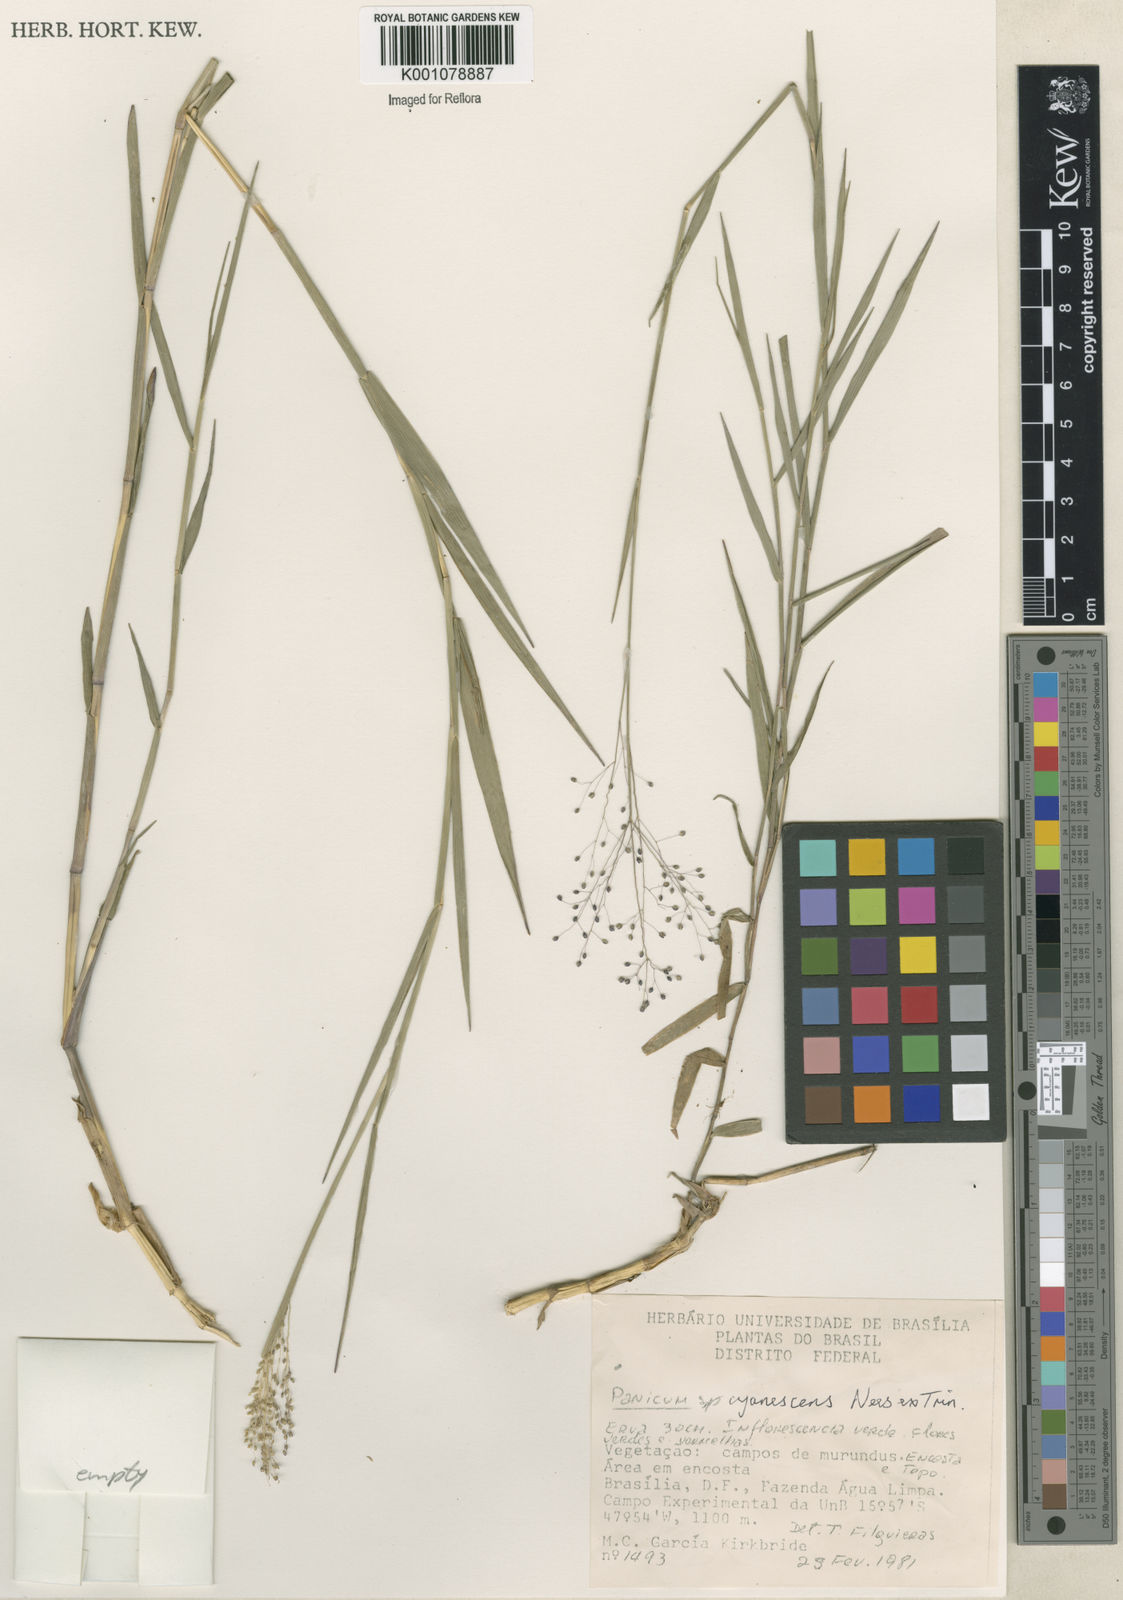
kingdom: Plantae
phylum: Tracheophyta
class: Liliopsida
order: Poales
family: Poaceae
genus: Trichanthecium
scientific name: Trichanthecium cyanescens
